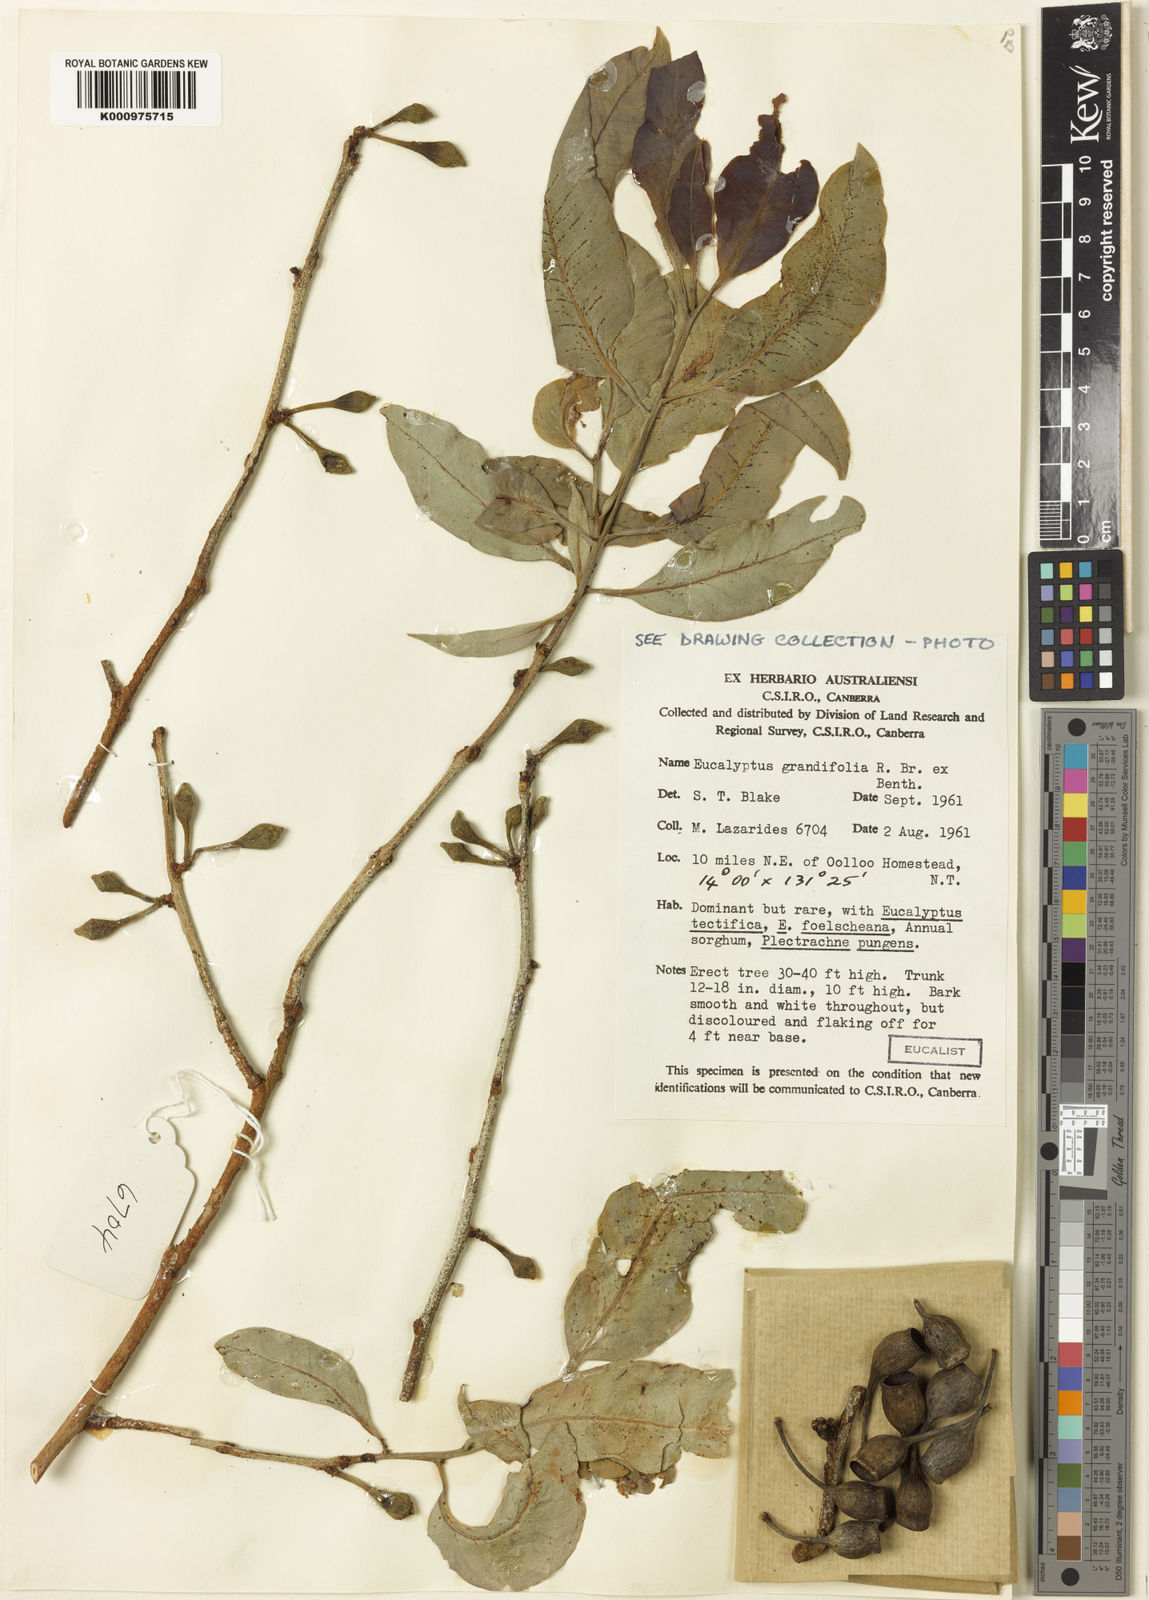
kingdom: Plantae
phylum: Tracheophyta
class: Magnoliopsida
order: Myrtales
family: Myrtaceae
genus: Corymbia
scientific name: Corymbia grandifolia
